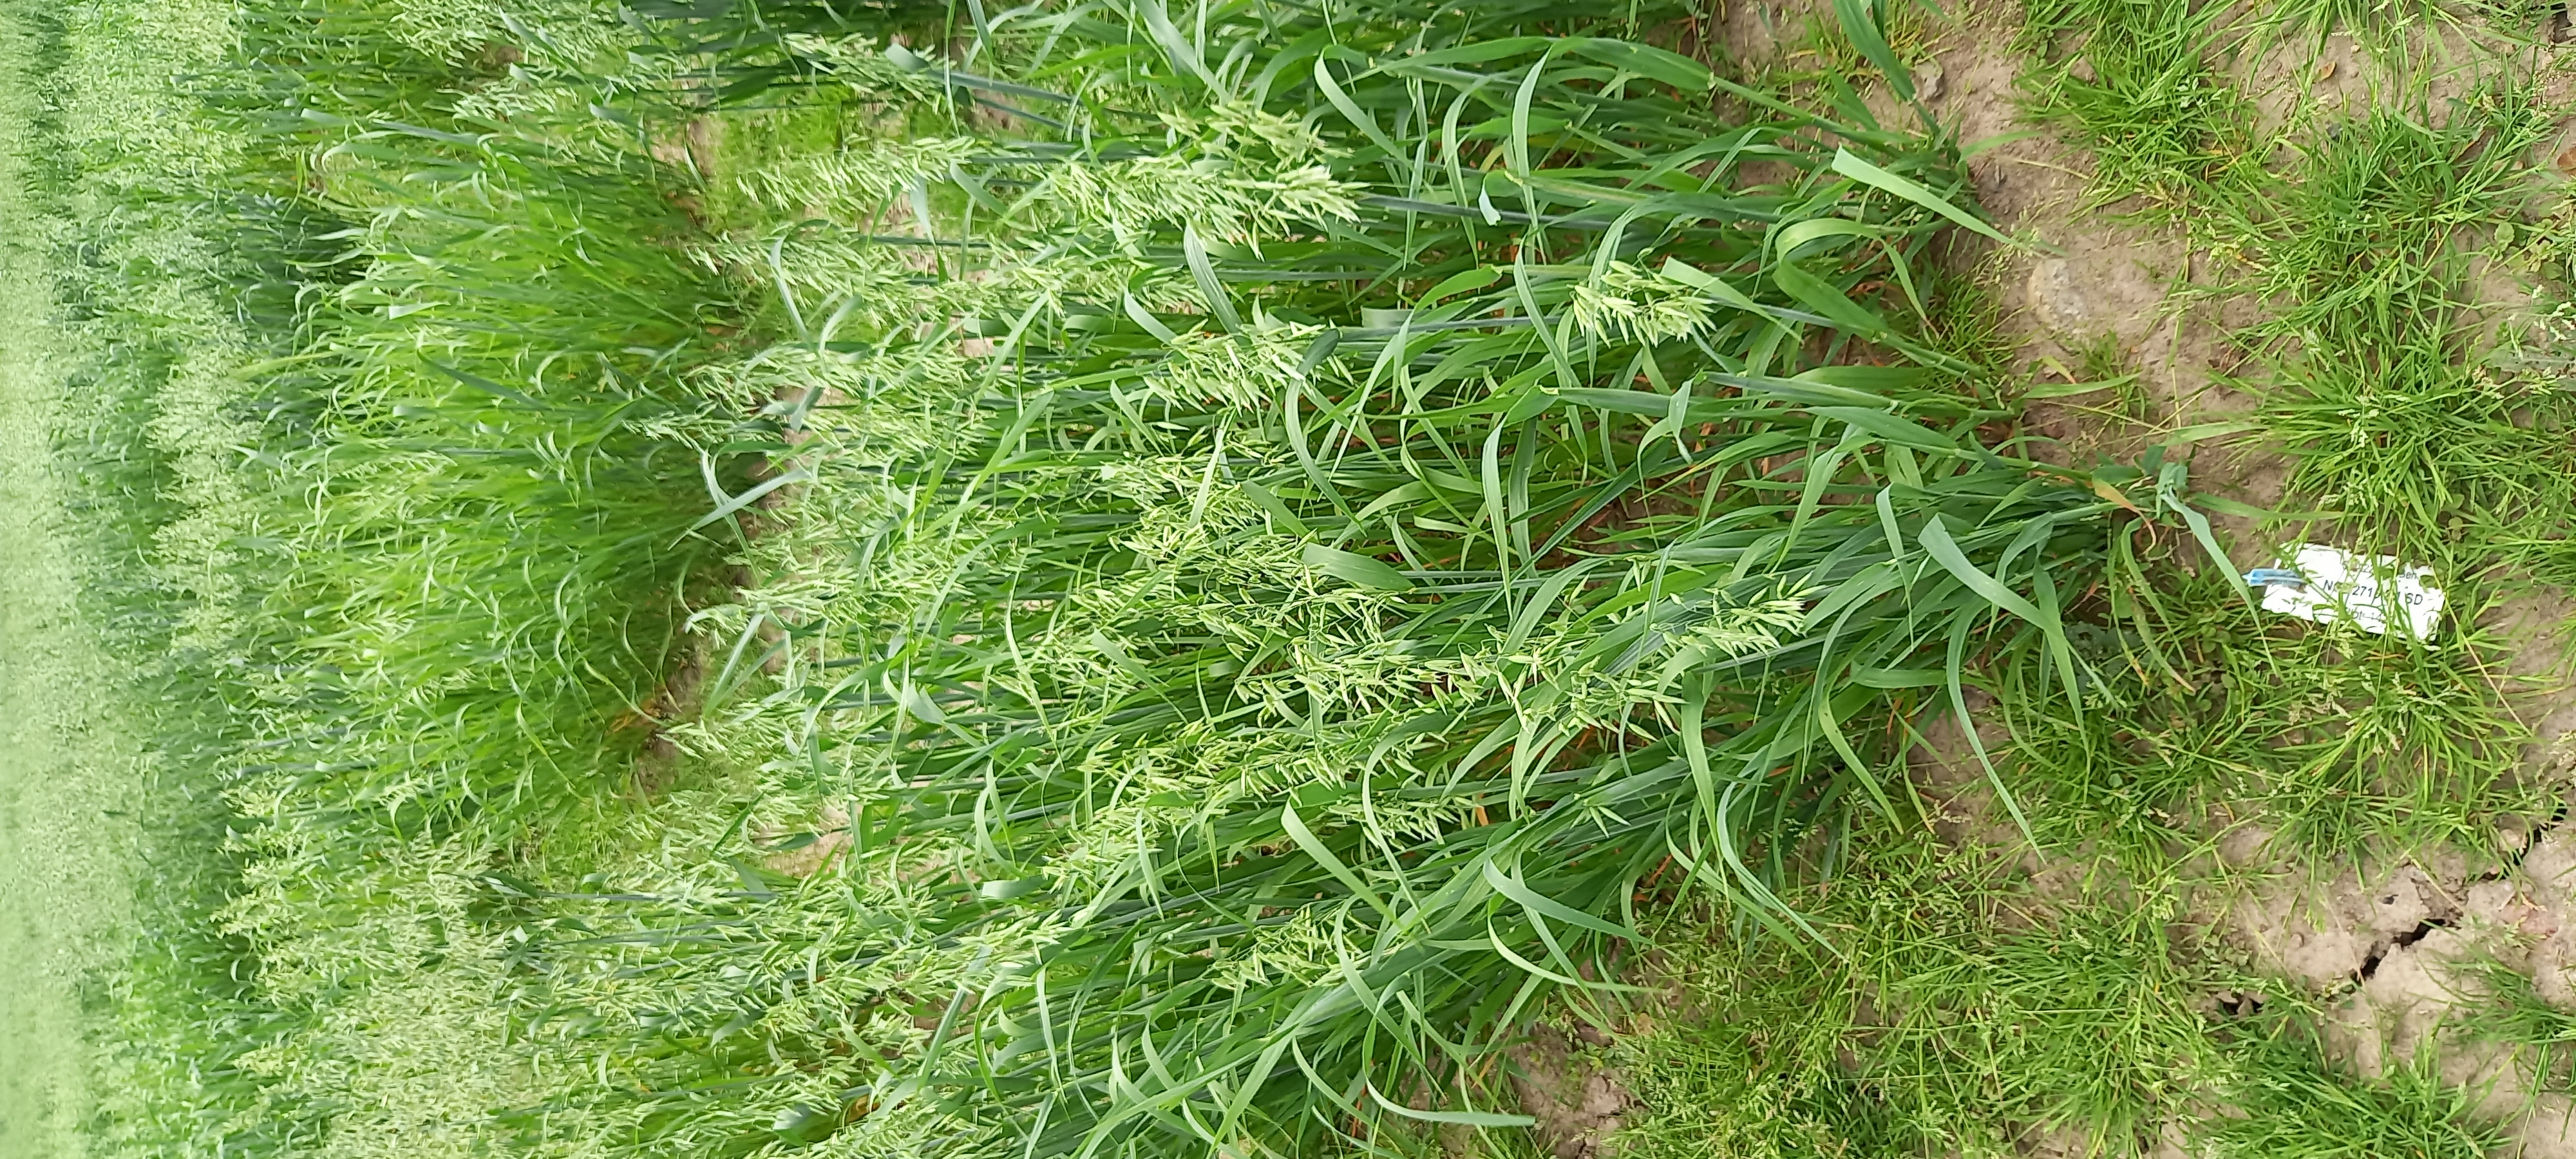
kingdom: Plantae
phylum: Tracheophyta
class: Liliopsida
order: Poales
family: Poaceae
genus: Avena
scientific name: Avena sativa
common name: Oat
